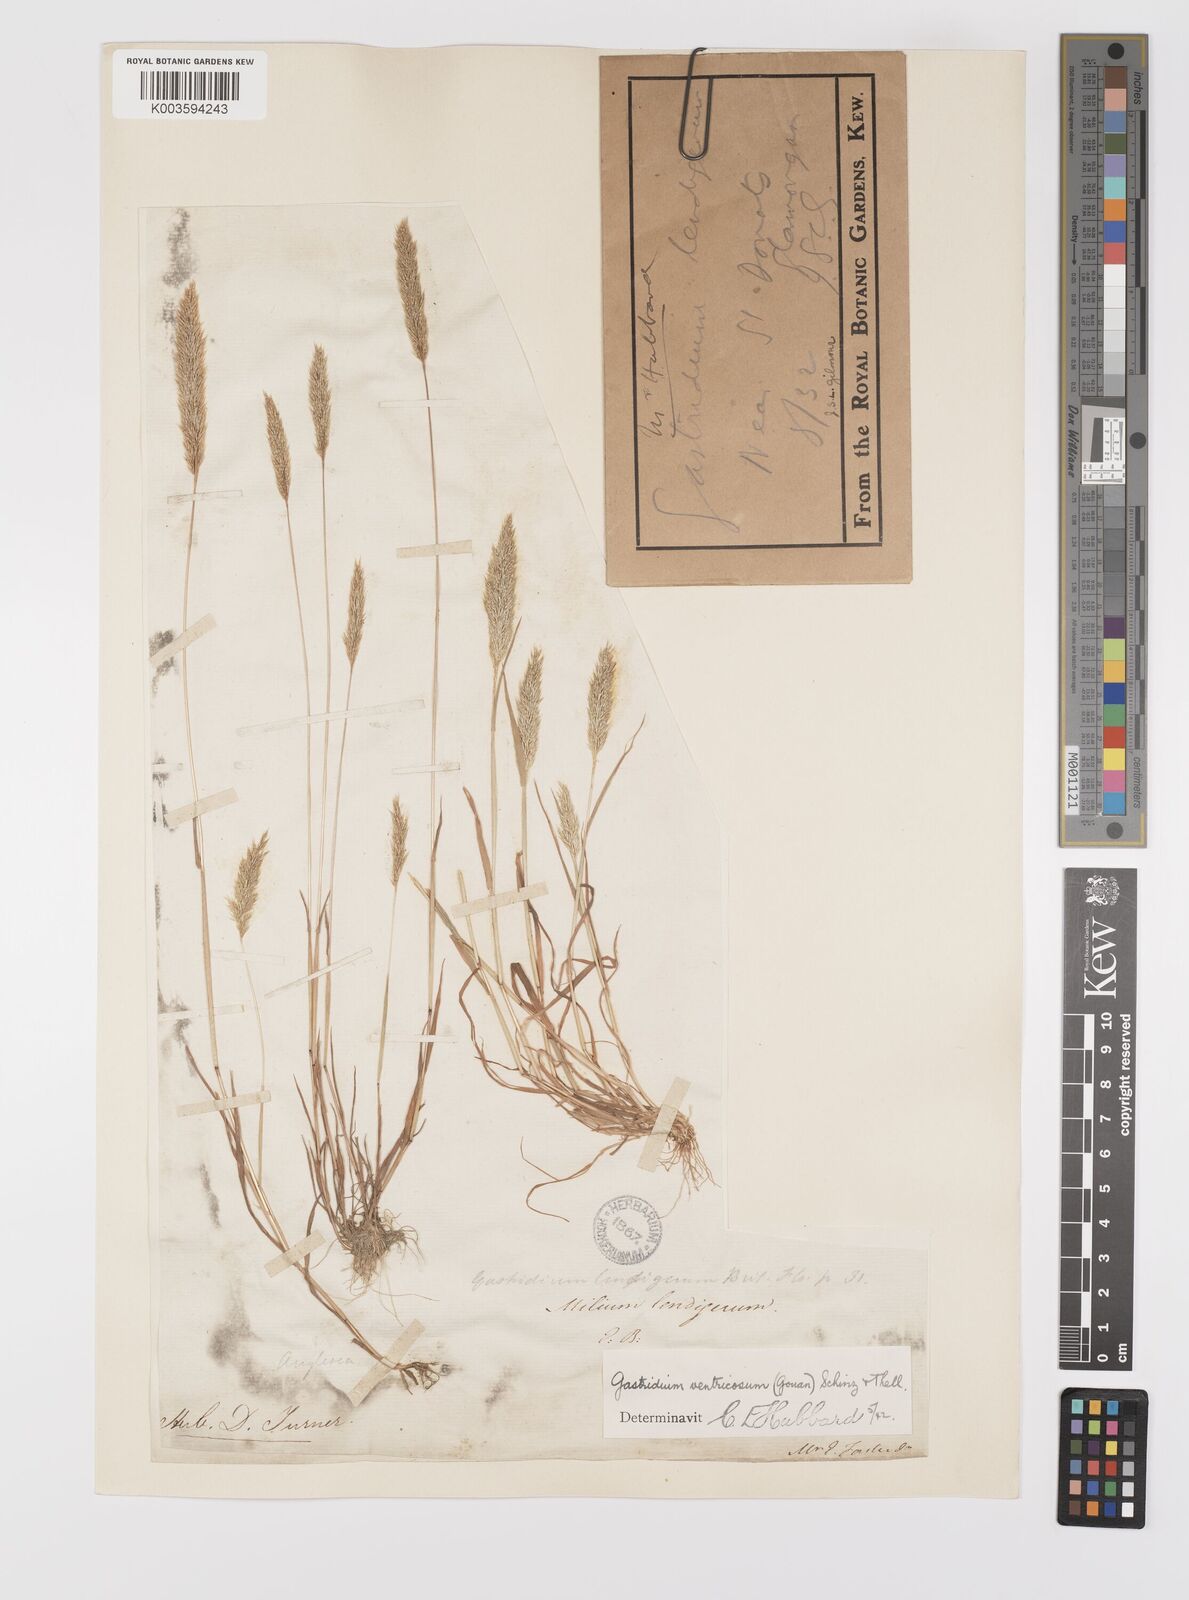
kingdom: Plantae
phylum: Tracheophyta
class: Liliopsida
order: Poales
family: Poaceae
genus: Gastridium
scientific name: Gastridium ventricosum
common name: Nit-grass
